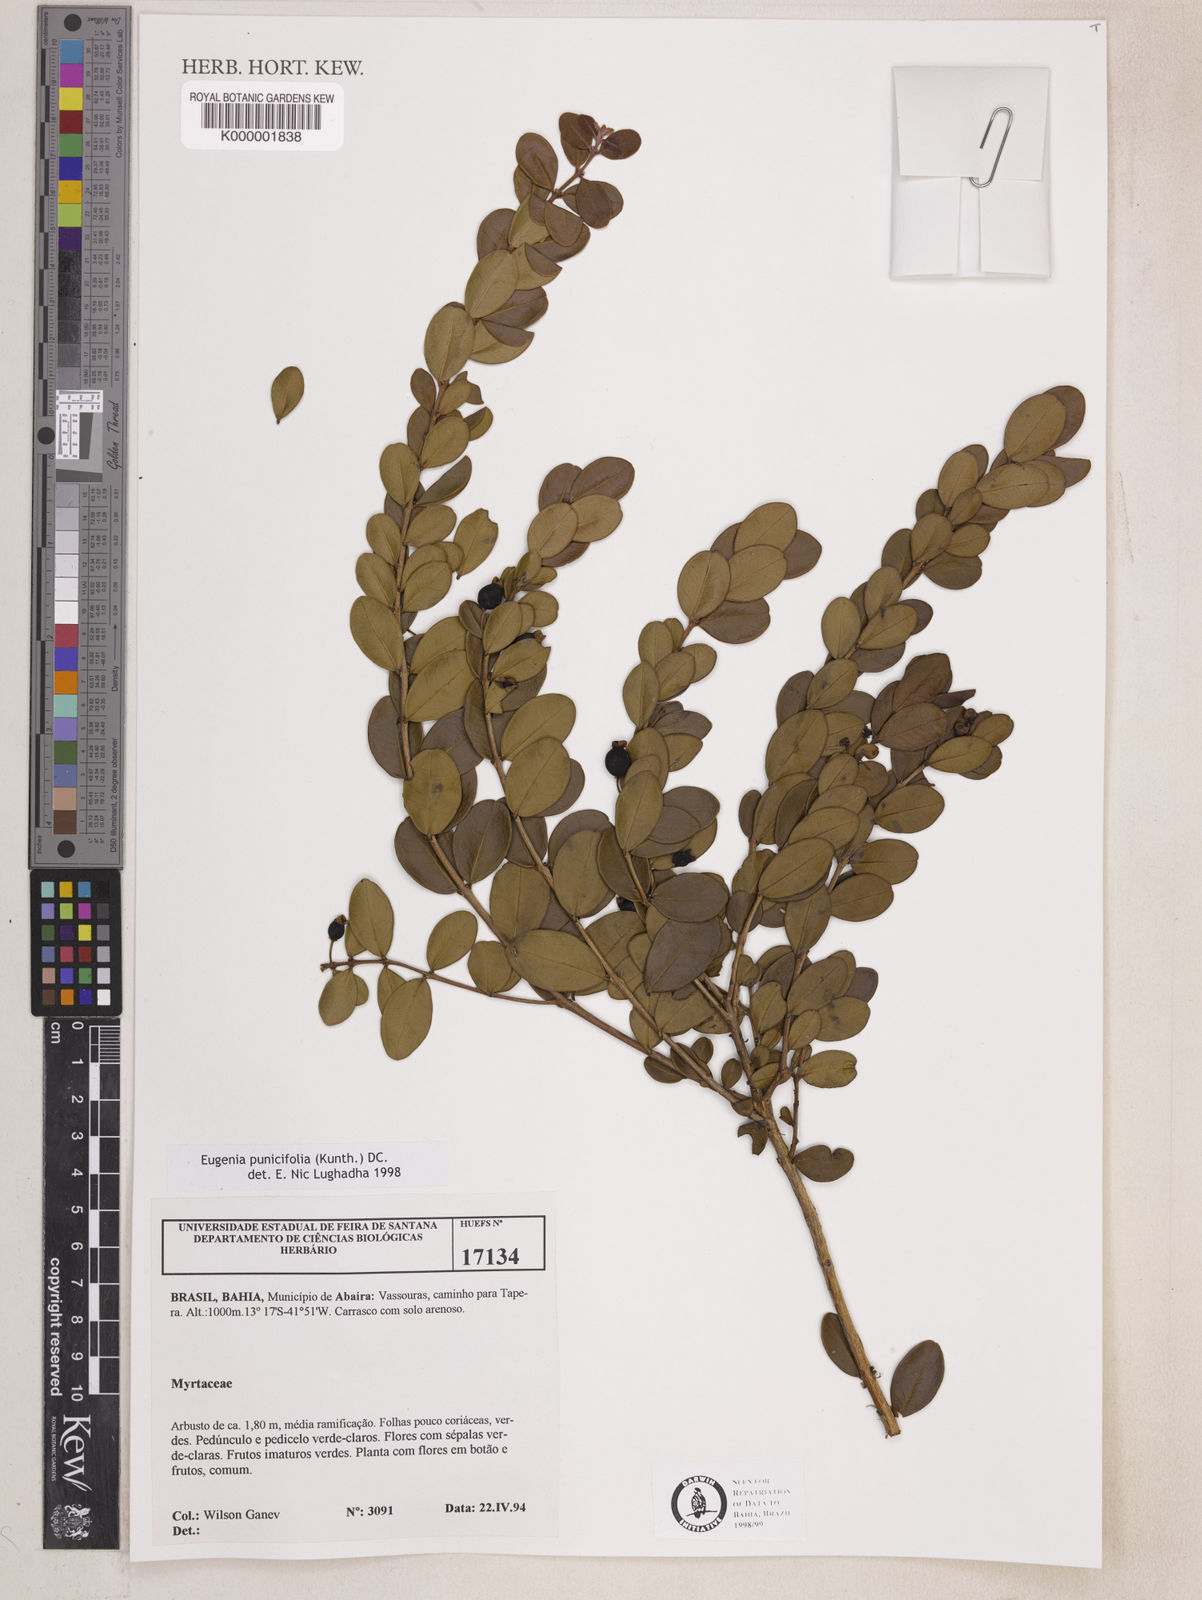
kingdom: Plantae
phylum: Tracheophyta
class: Magnoliopsida
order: Myrtales
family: Myrtaceae
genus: Eugenia
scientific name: Eugenia punicifolia
